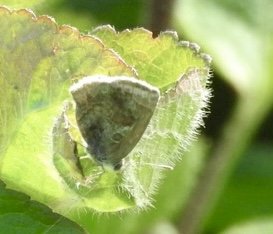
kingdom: Animalia
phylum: Arthropoda
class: Insecta
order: Lepidoptera
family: Lycaenidae
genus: Strymon
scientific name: Strymon bazochii
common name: Lantana Scrub-Hairstreak
